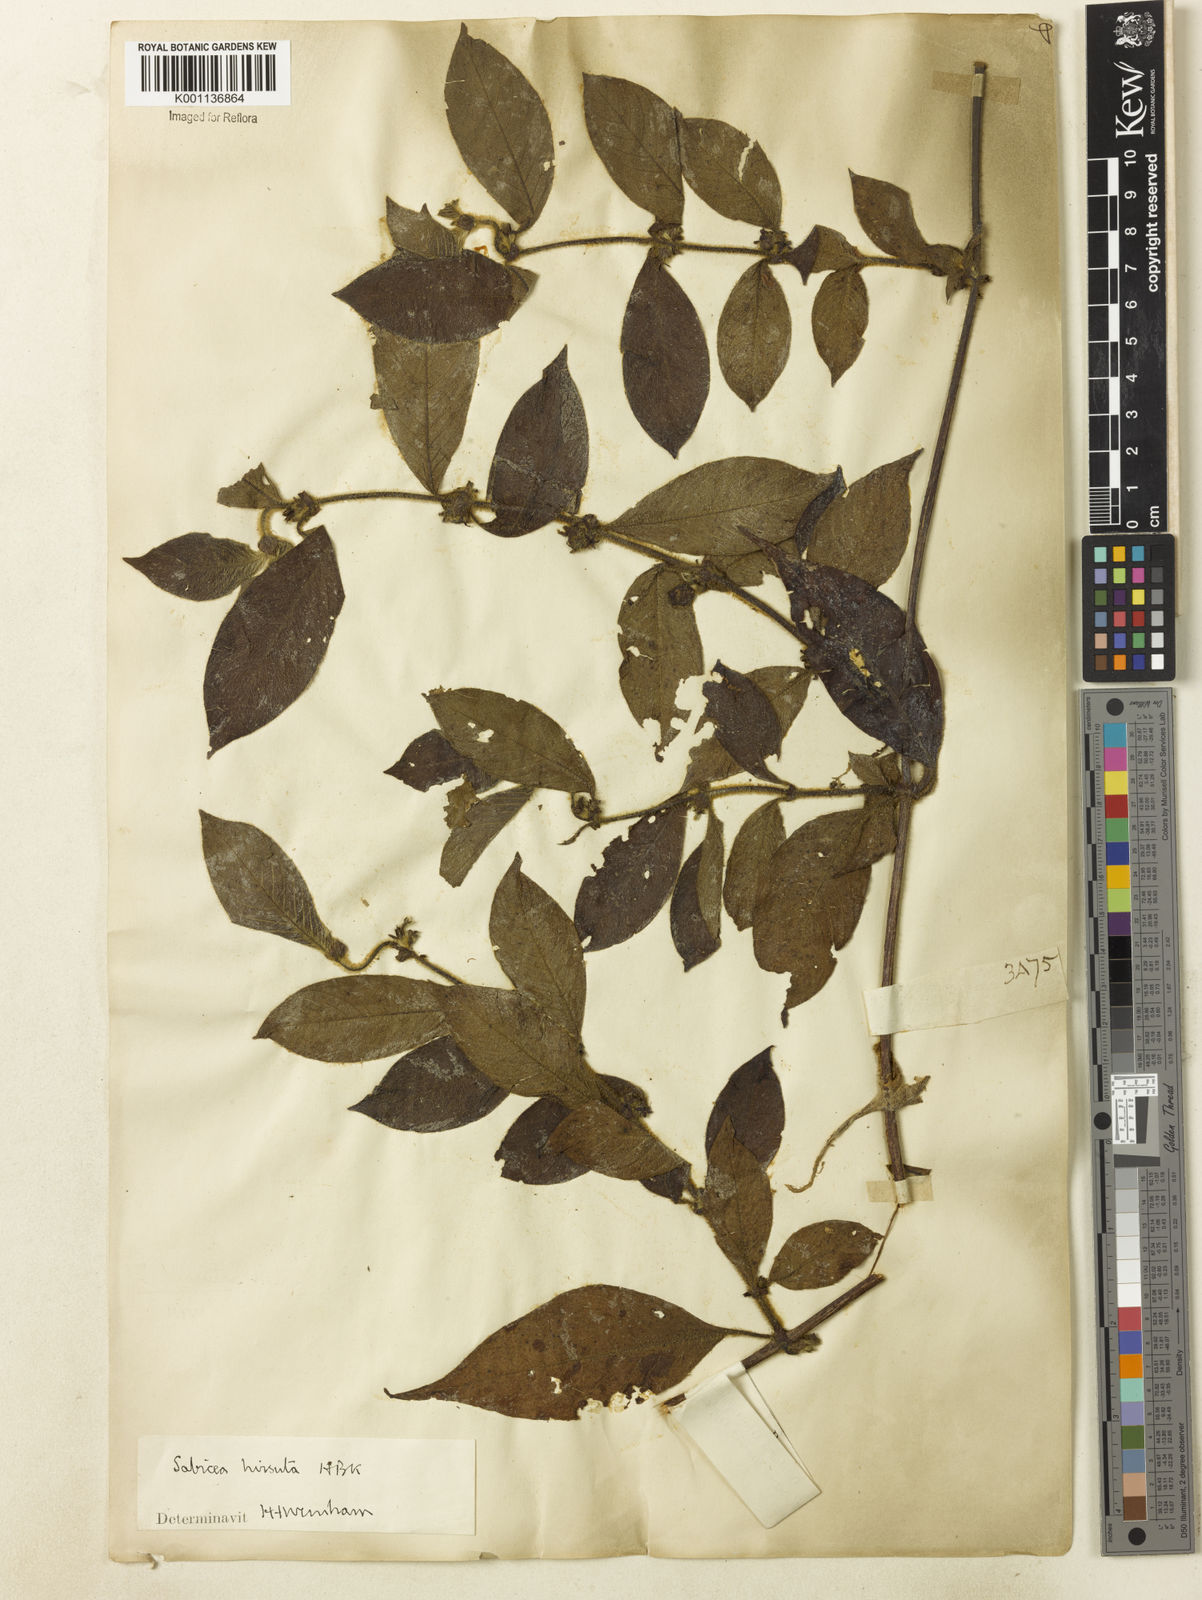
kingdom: Plantae
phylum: Tracheophyta
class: Magnoliopsida
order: Gentianales
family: Rubiaceae
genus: Sabicea
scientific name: Sabicea grisea
